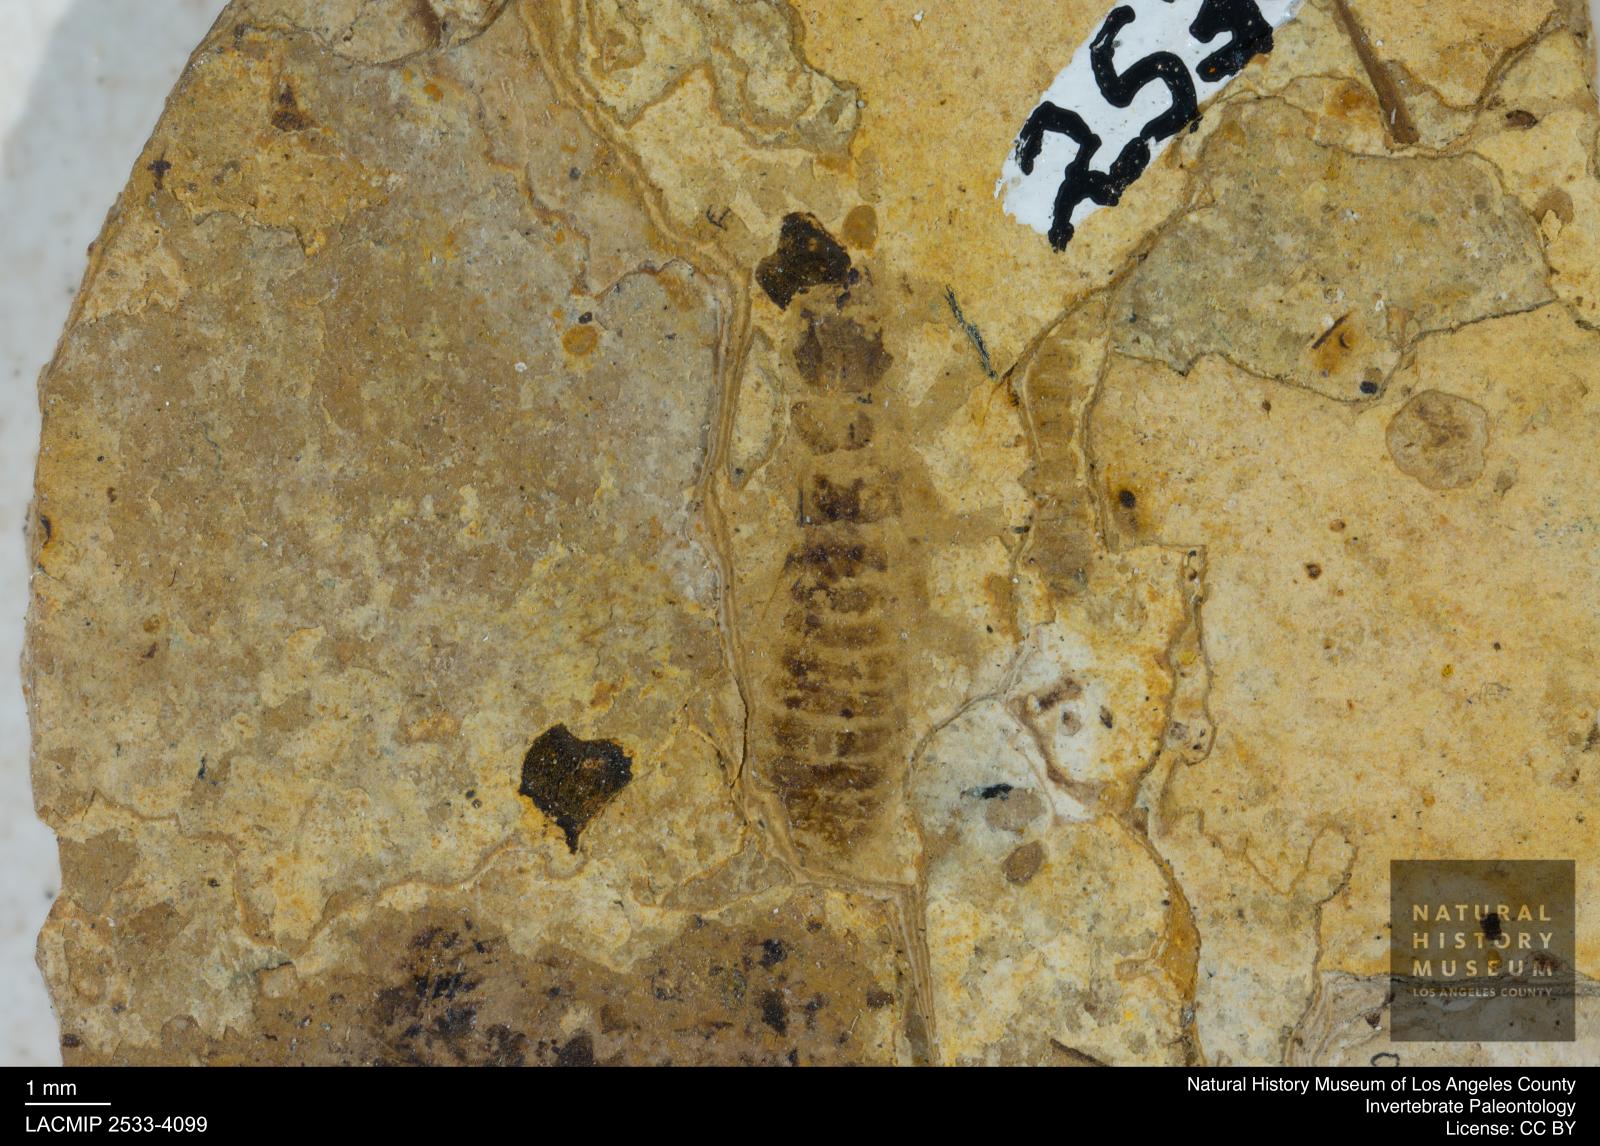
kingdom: Animalia
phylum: Arthropoda
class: Insecta
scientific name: Insecta
